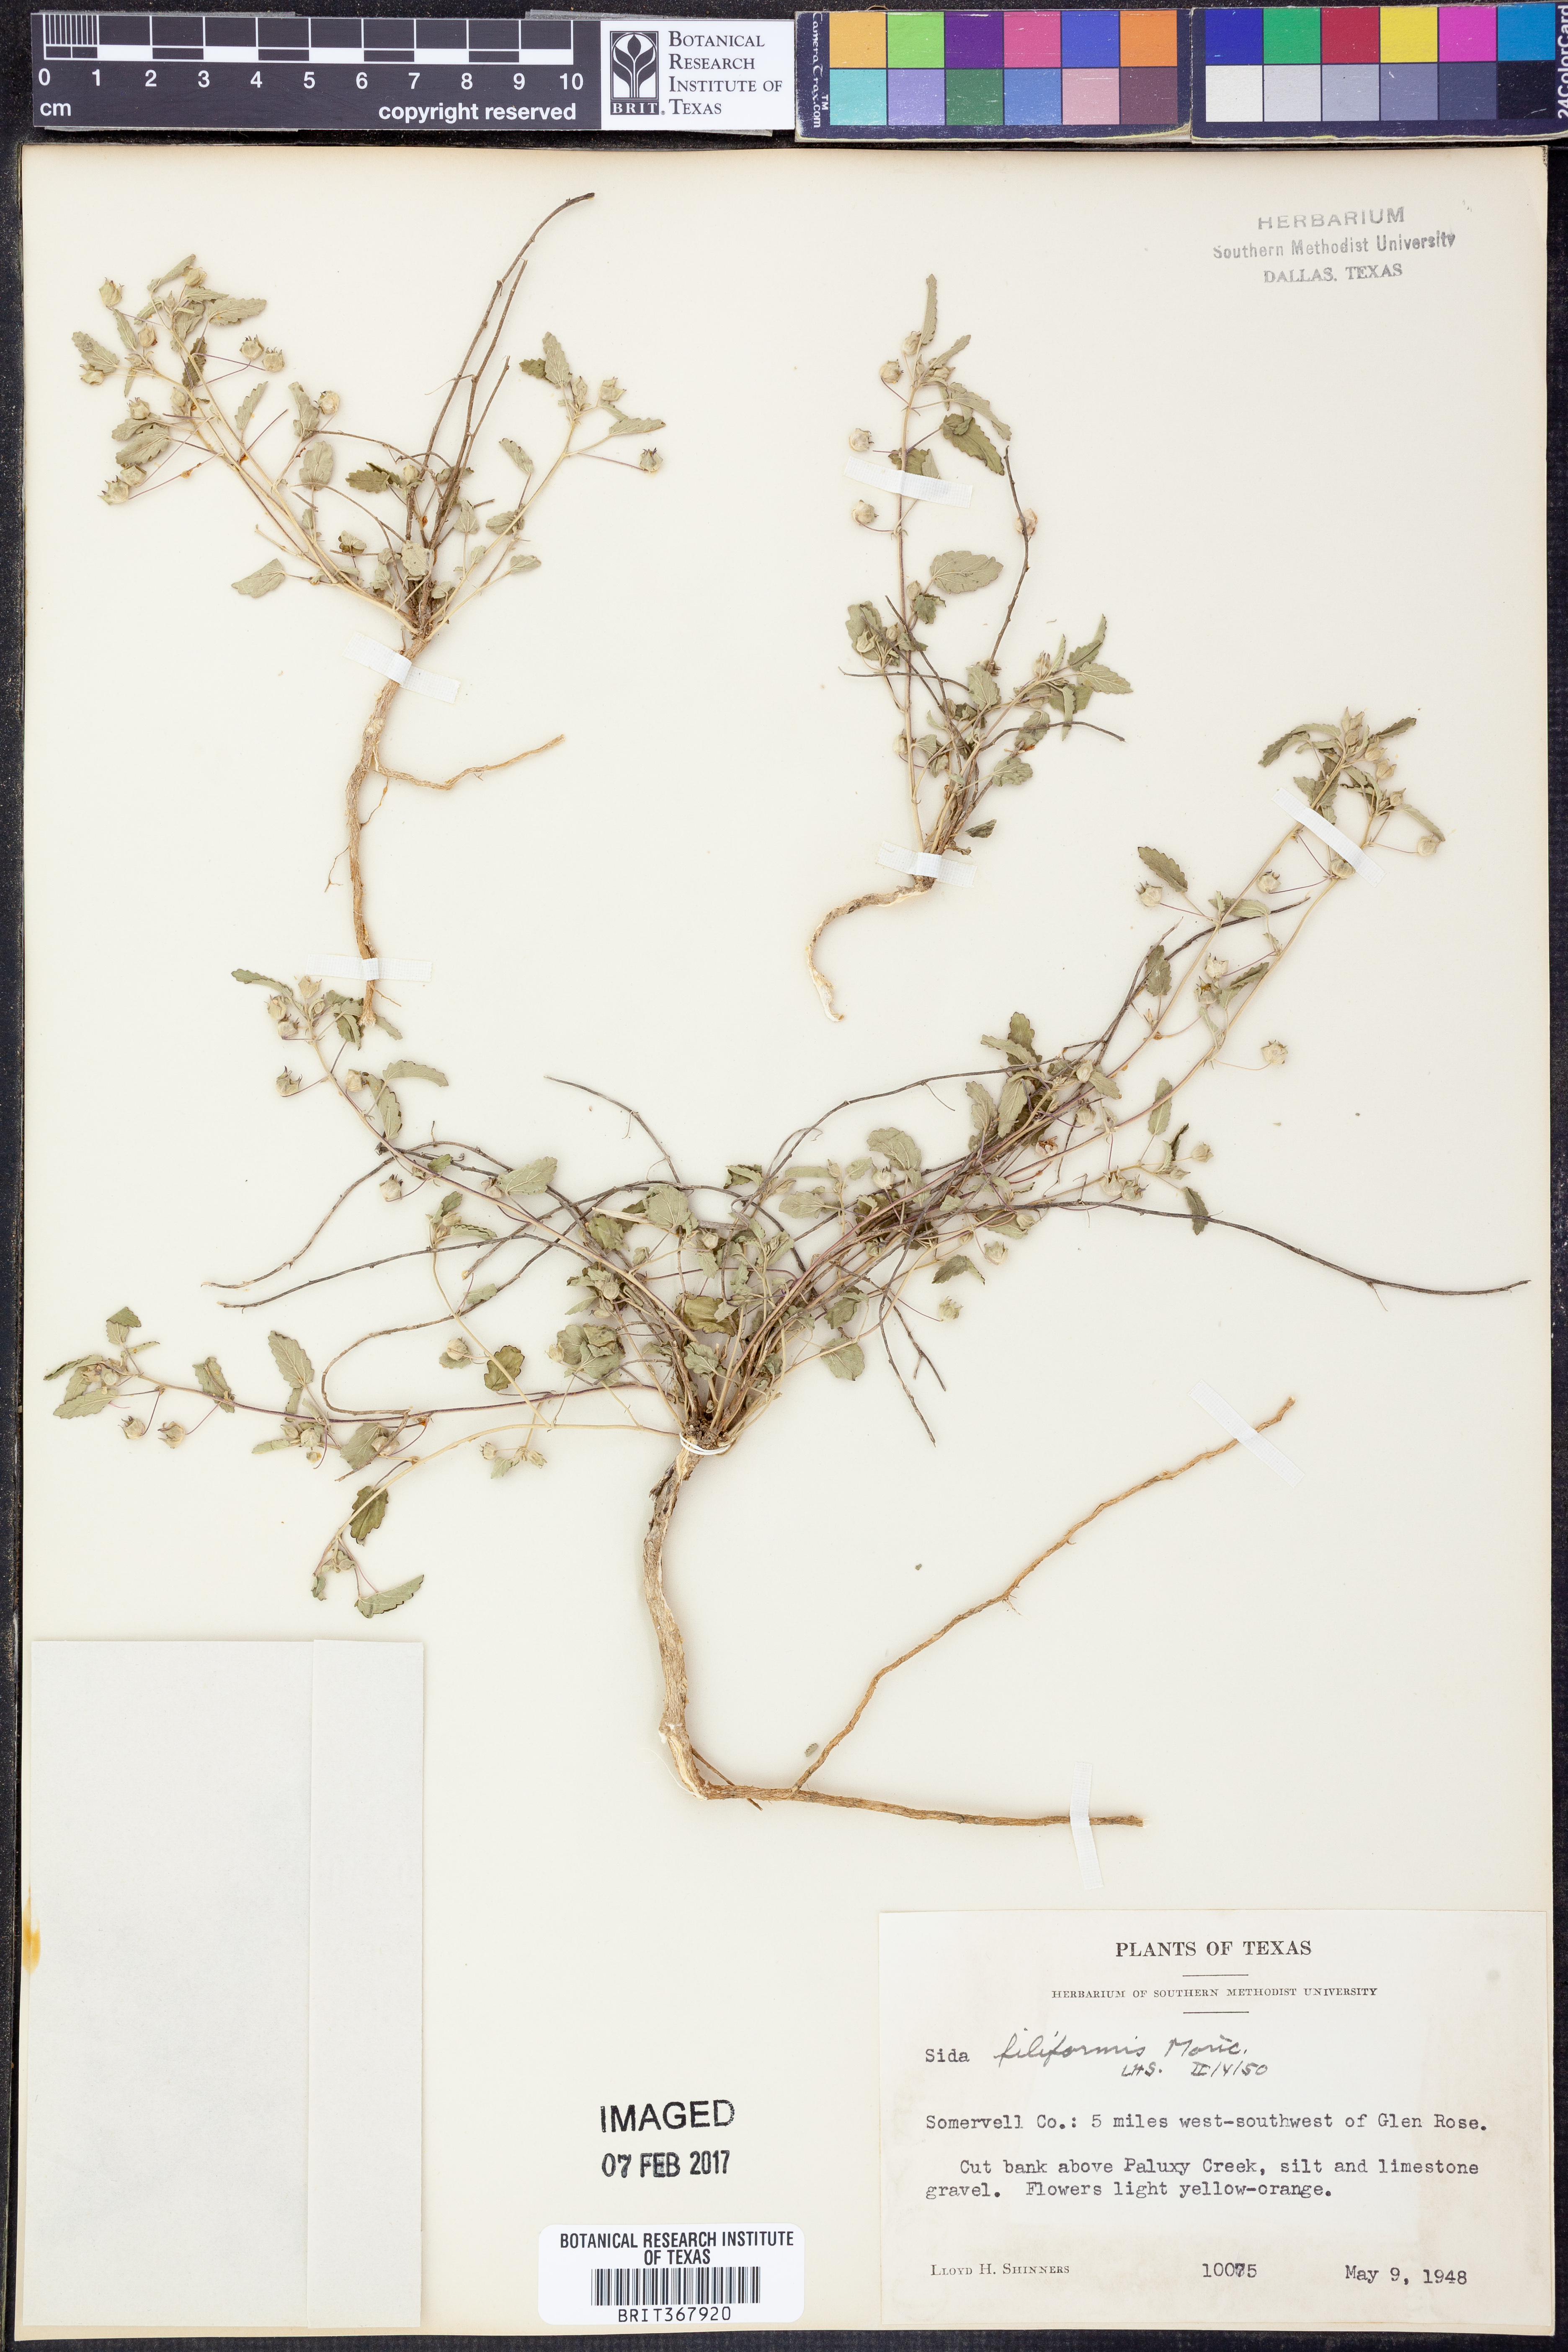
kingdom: Plantae
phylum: Tracheophyta
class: Magnoliopsida
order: Malvales
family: Malvaceae
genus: Sida
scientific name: Sida abutilifolia
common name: Spreading fanpetals
